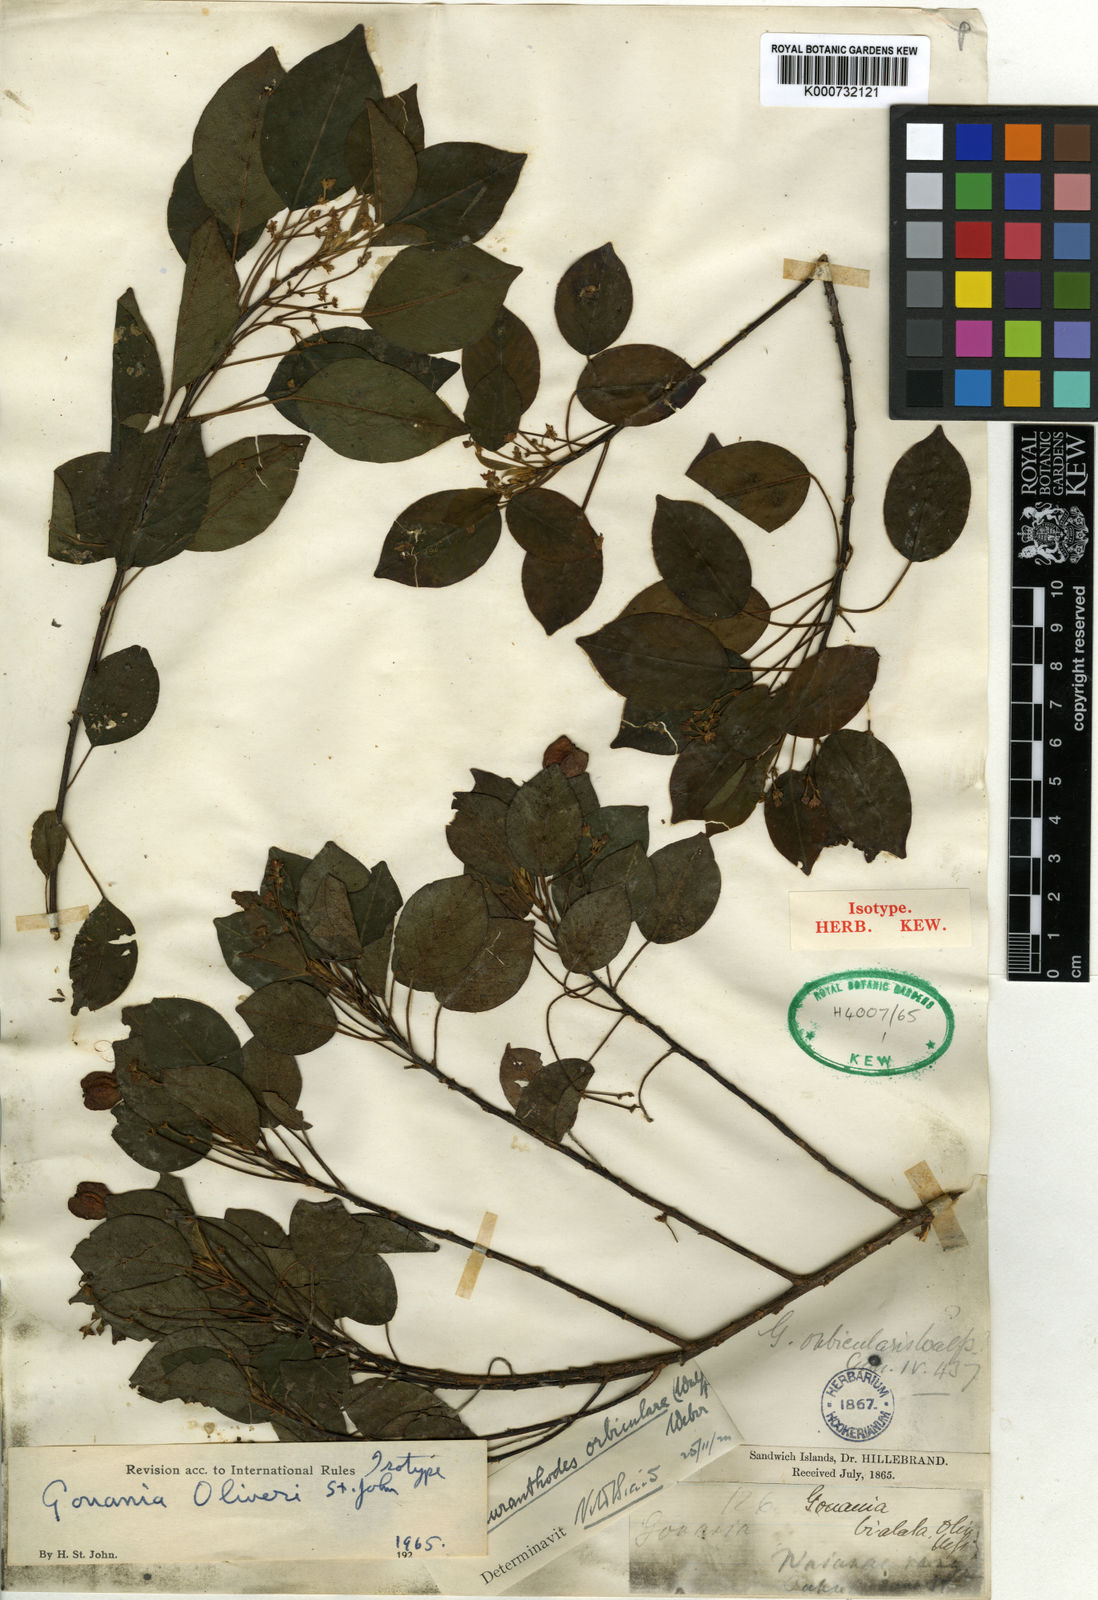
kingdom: Plantae
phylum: Tracheophyta
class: Magnoliopsida
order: Rosales
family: Rhamnaceae
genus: Gouania
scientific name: Gouania
